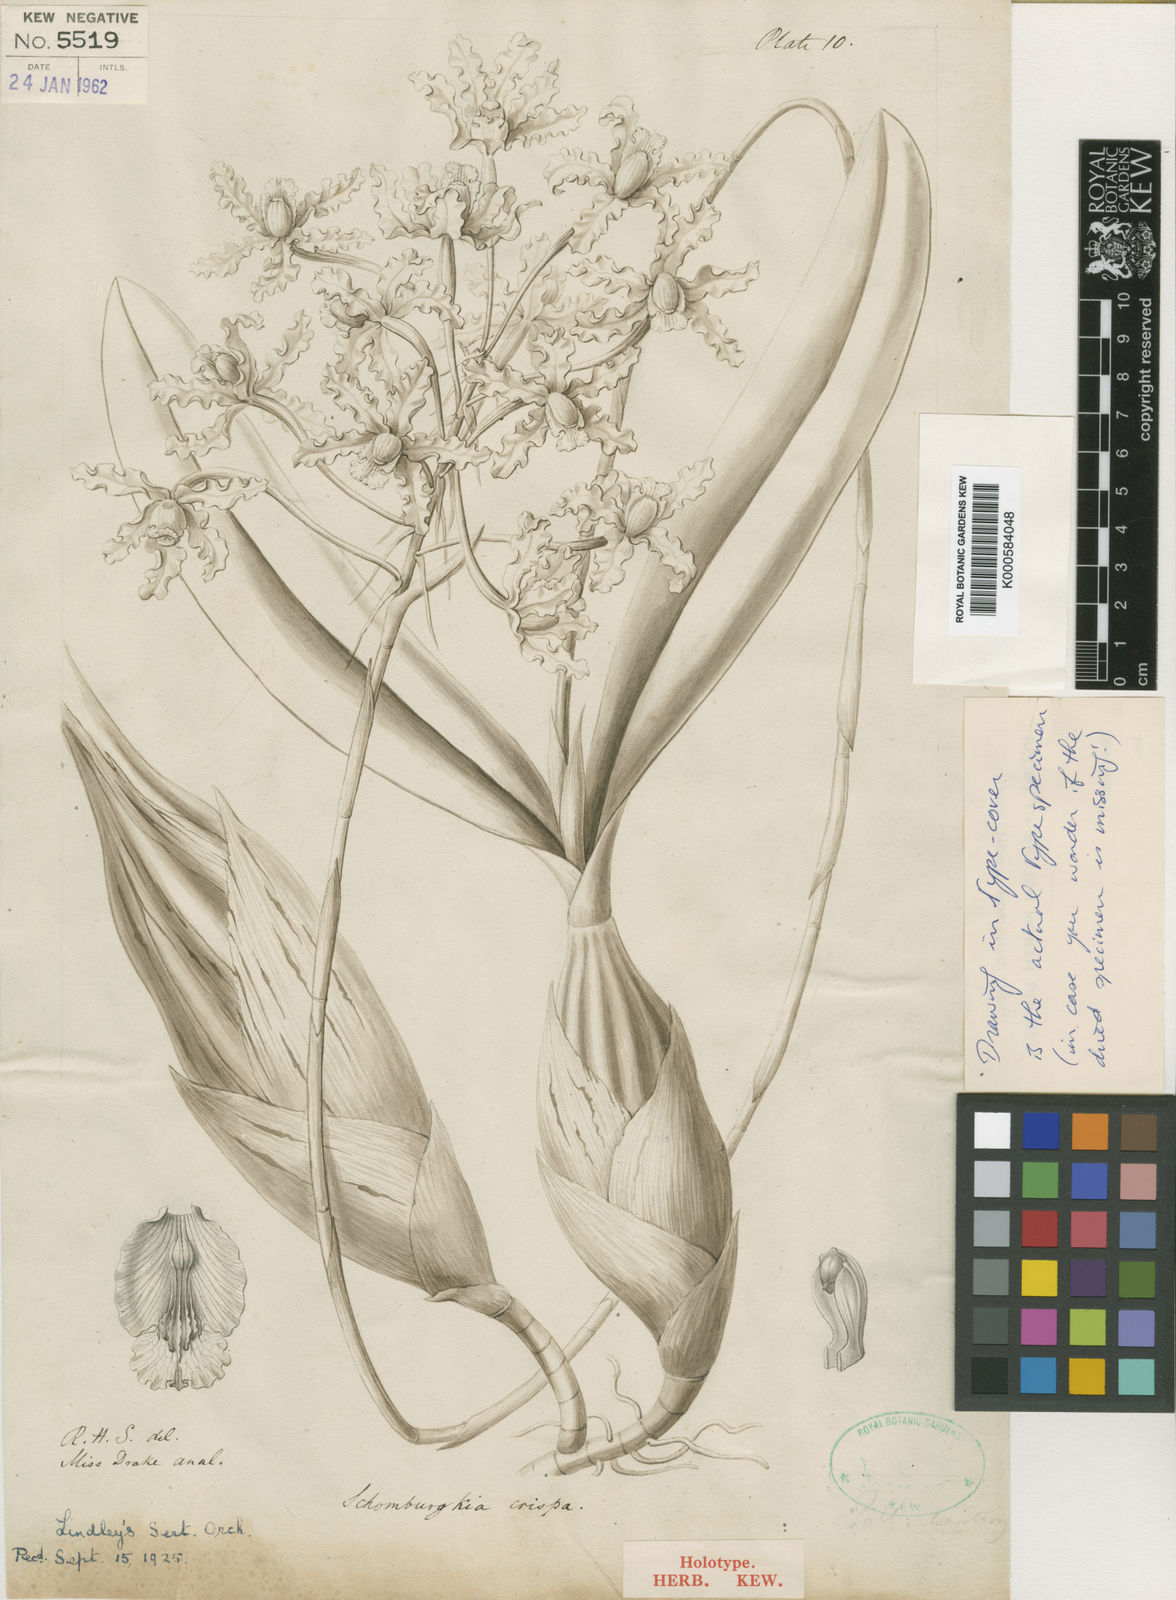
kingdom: Plantae
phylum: Tracheophyta
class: Liliopsida
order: Asparagales
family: Orchidaceae
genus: Laelia
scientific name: Laelia marginata
